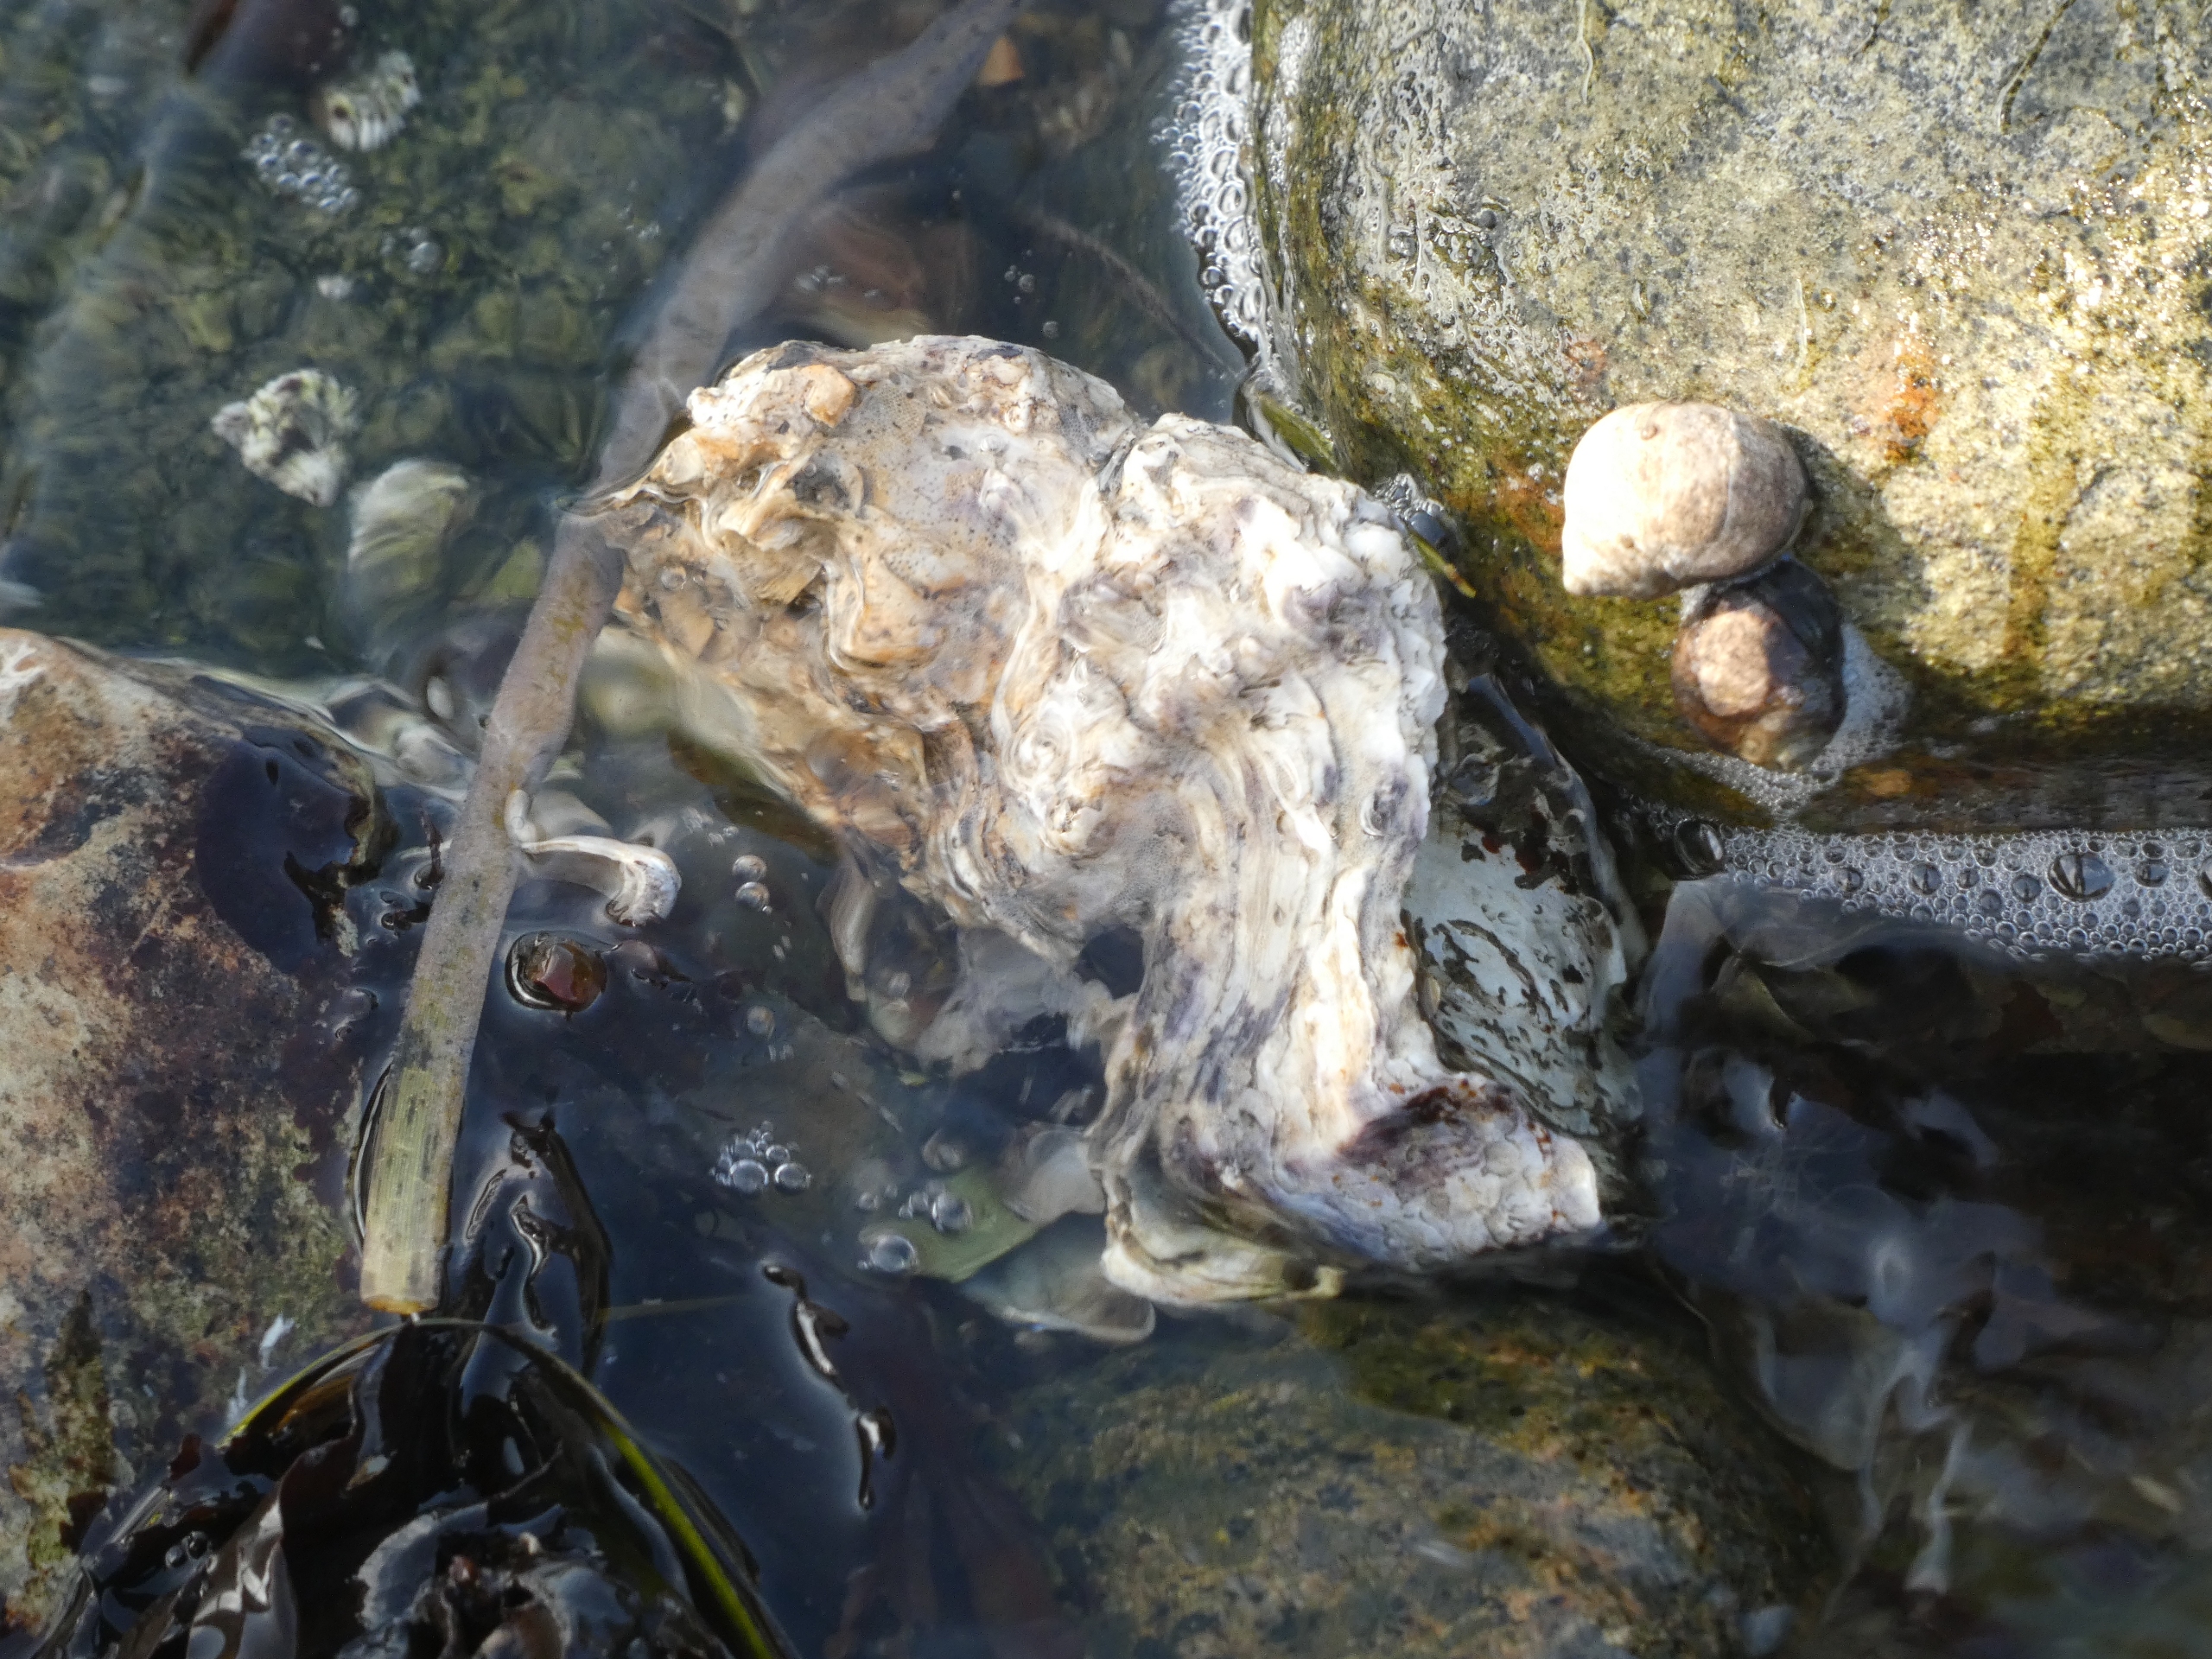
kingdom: Animalia
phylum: Mollusca
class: Bivalvia
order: Ostreida
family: Ostreidae
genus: Magallana
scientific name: Magallana gigas
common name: Stillehavsøsters
